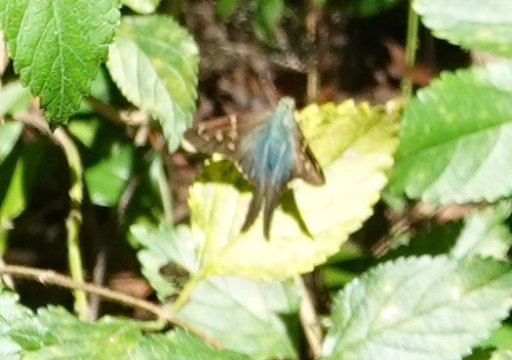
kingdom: Animalia
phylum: Arthropoda
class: Insecta
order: Lepidoptera
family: Hesperiidae
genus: Urbanus
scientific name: Urbanus proteus
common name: Long-tailed Skipper
